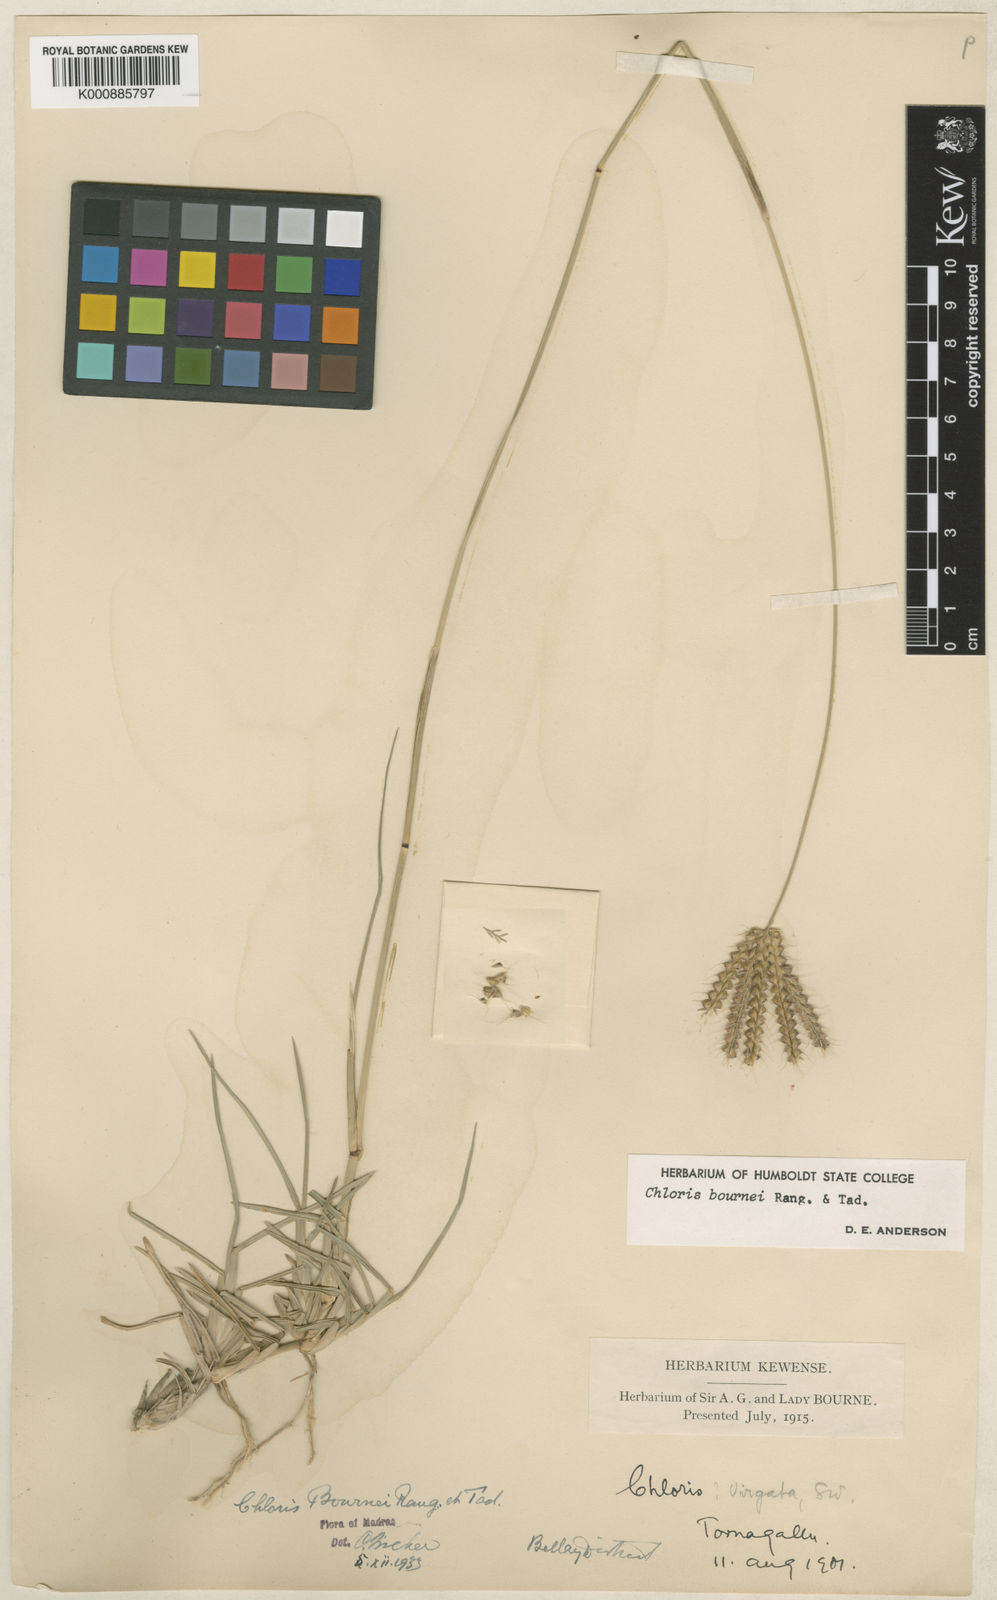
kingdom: Plantae
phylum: Tracheophyta
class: Liliopsida
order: Poales
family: Poaceae
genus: Chloris
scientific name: Chloris bournei
